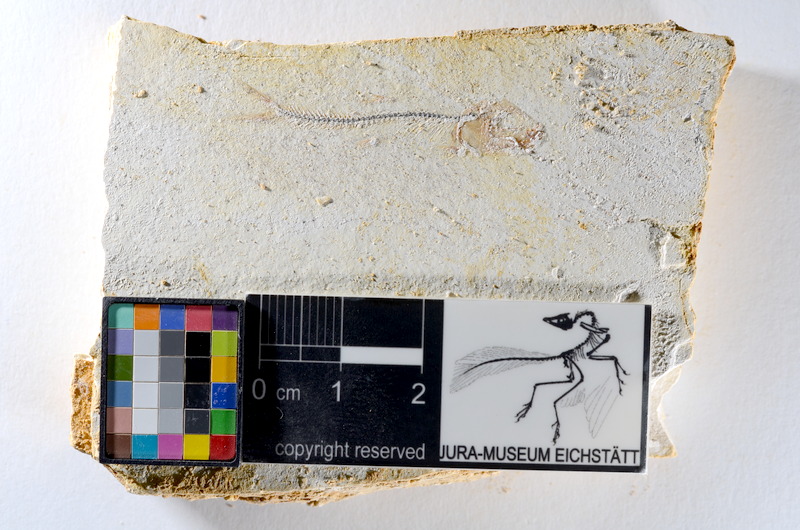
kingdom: Animalia
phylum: Chordata
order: Salmoniformes
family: Orthogonikleithridae
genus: Orthogonikleithrus
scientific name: Orthogonikleithrus hoelli
